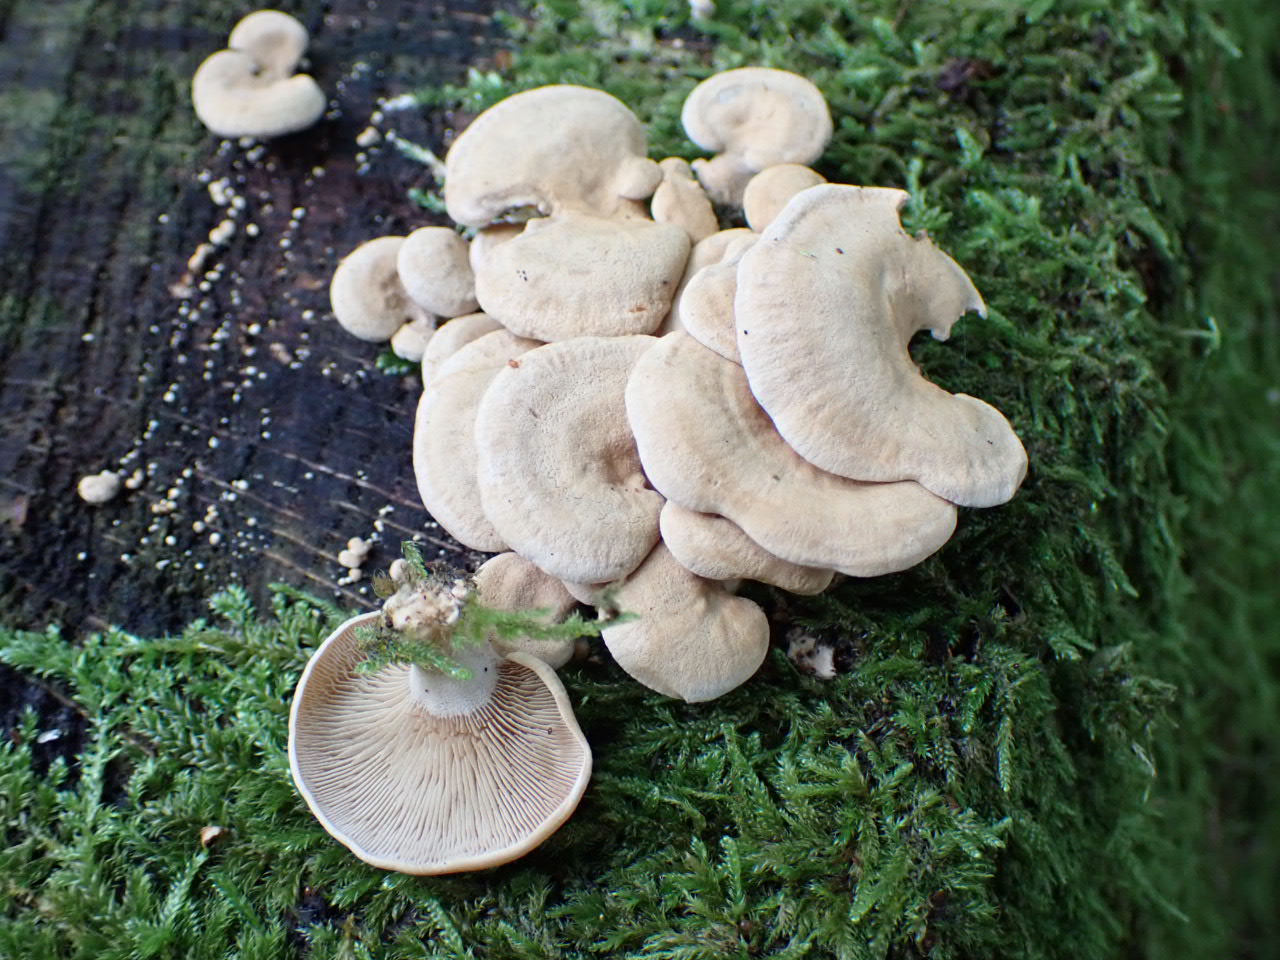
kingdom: Fungi
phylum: Basidiomycota
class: Agaricomycetes
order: Agaricales
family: Mycenaceae
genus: Panellus
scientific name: Panellus stipticus
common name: kliddet epaulethat
